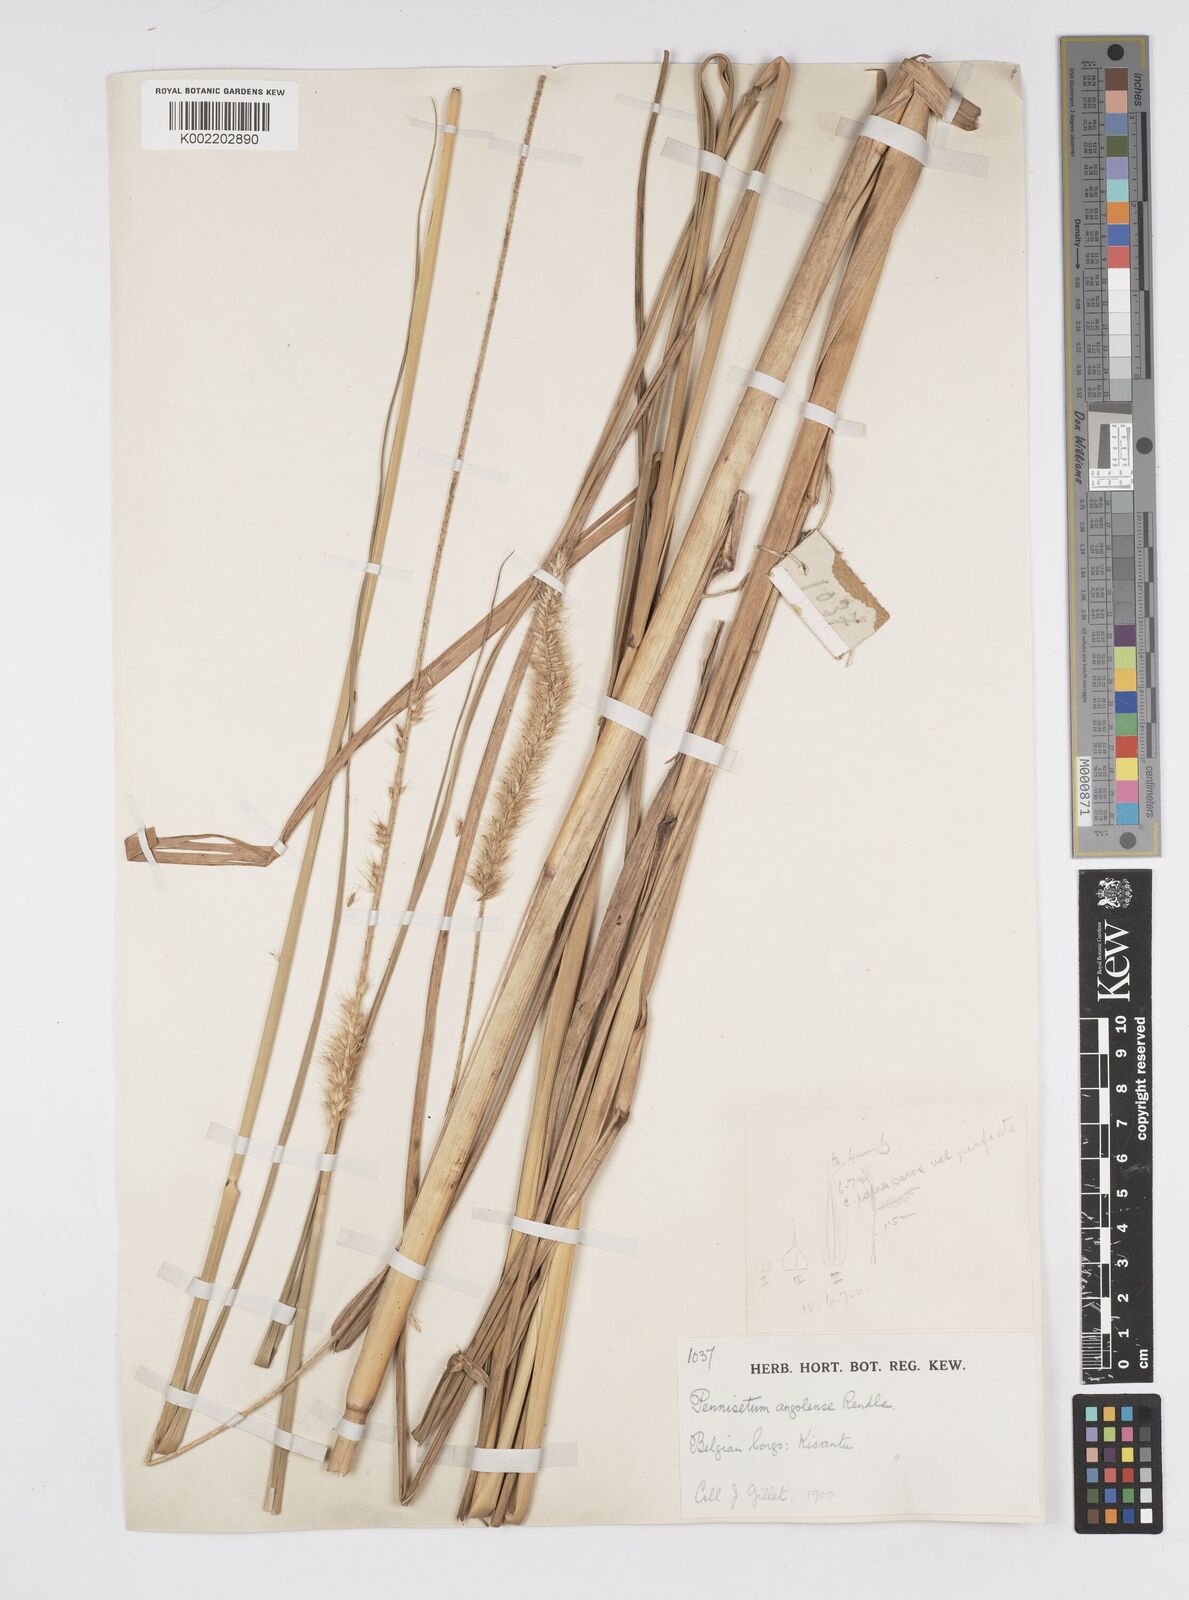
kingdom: Plantae
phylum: Tracheophyta
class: Liliopsida
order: Poales
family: Poaceae
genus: Cenchrus
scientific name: Cenchrus caudatus
